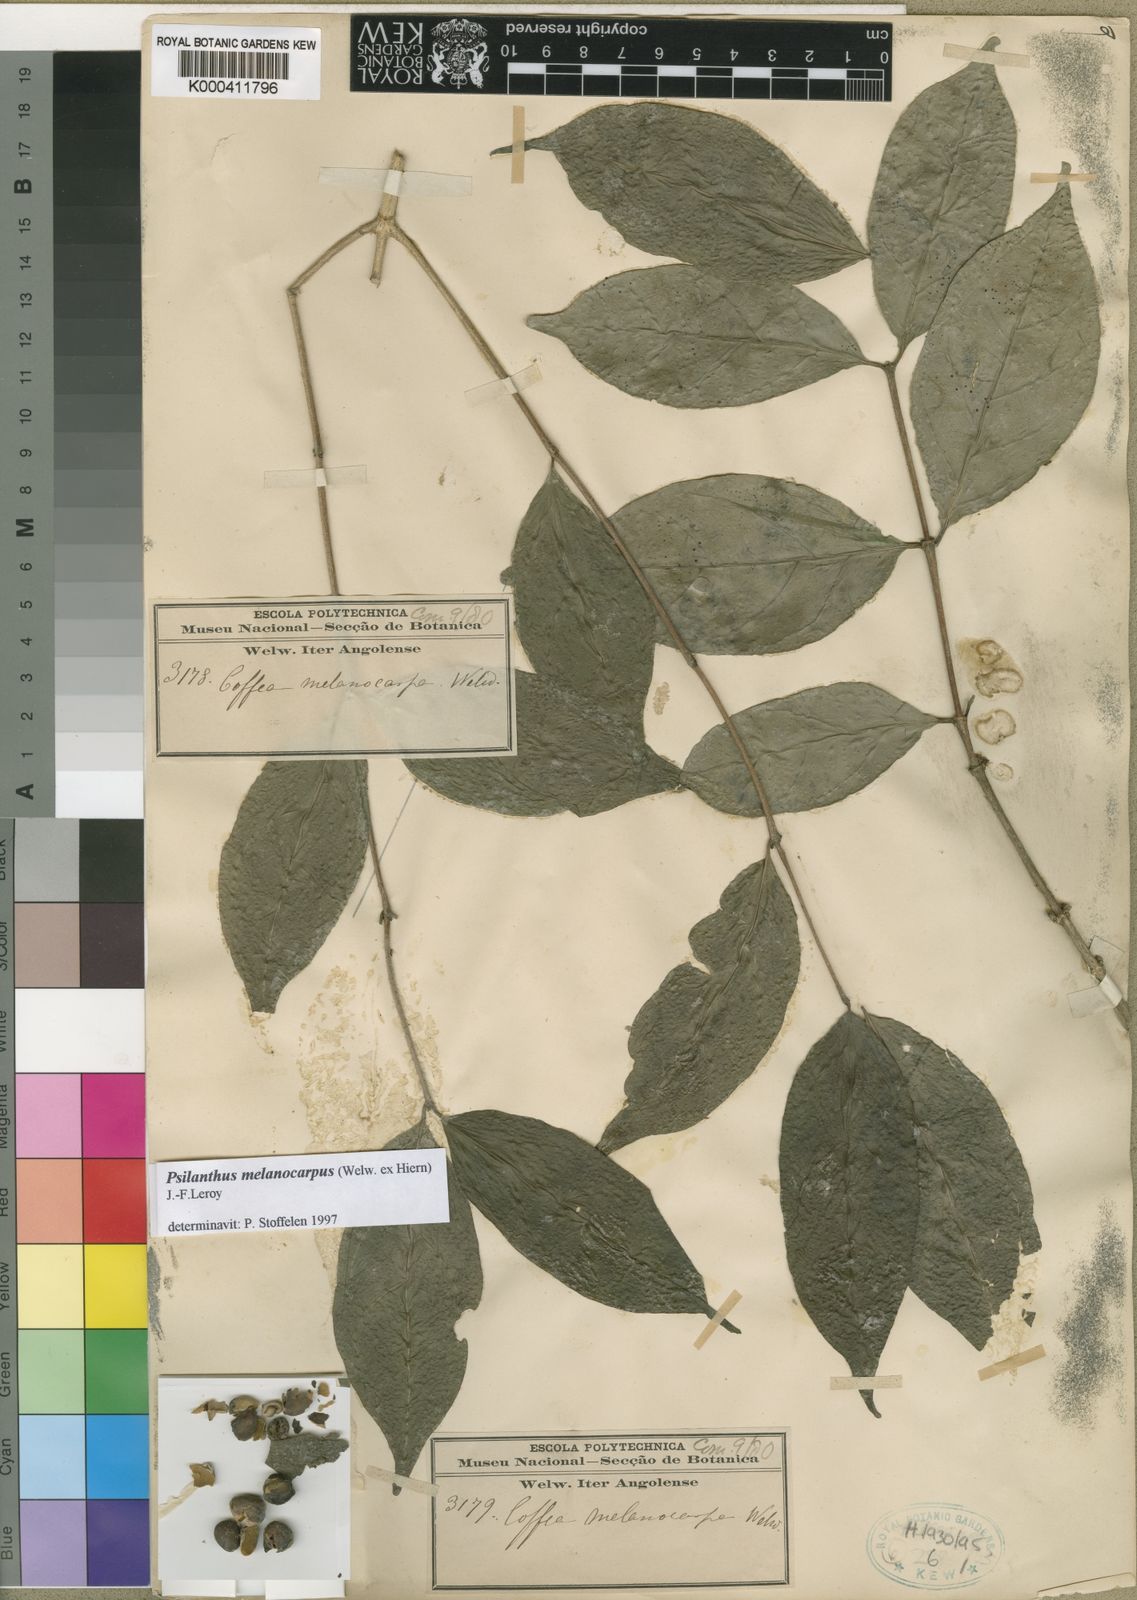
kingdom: Plantae
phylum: Tracheophyta
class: Magnoliopsida
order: Gentianales
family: Rubiaceae
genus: Coffea
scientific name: Coffea melanocarpa
